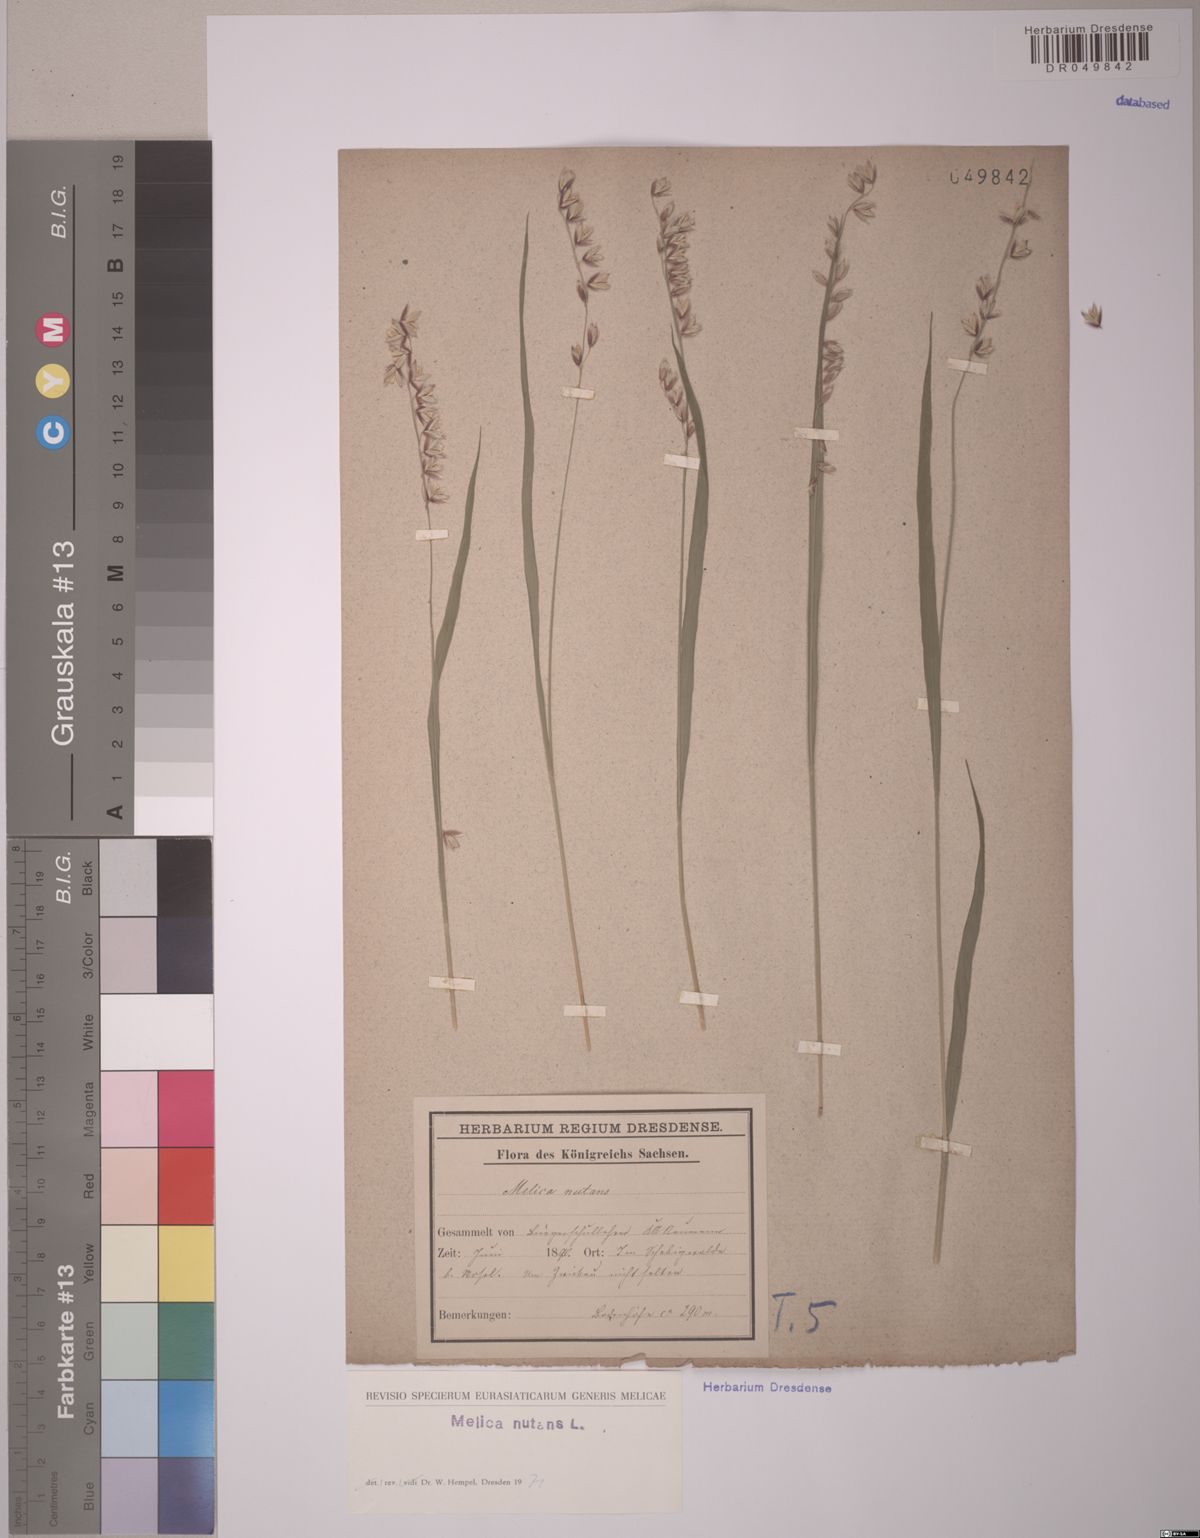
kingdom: Plantae
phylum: Tracheophyta
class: Liliopsida
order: Poales
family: Poaceae
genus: Melica
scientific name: Melica nutans
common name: Mountain melick
